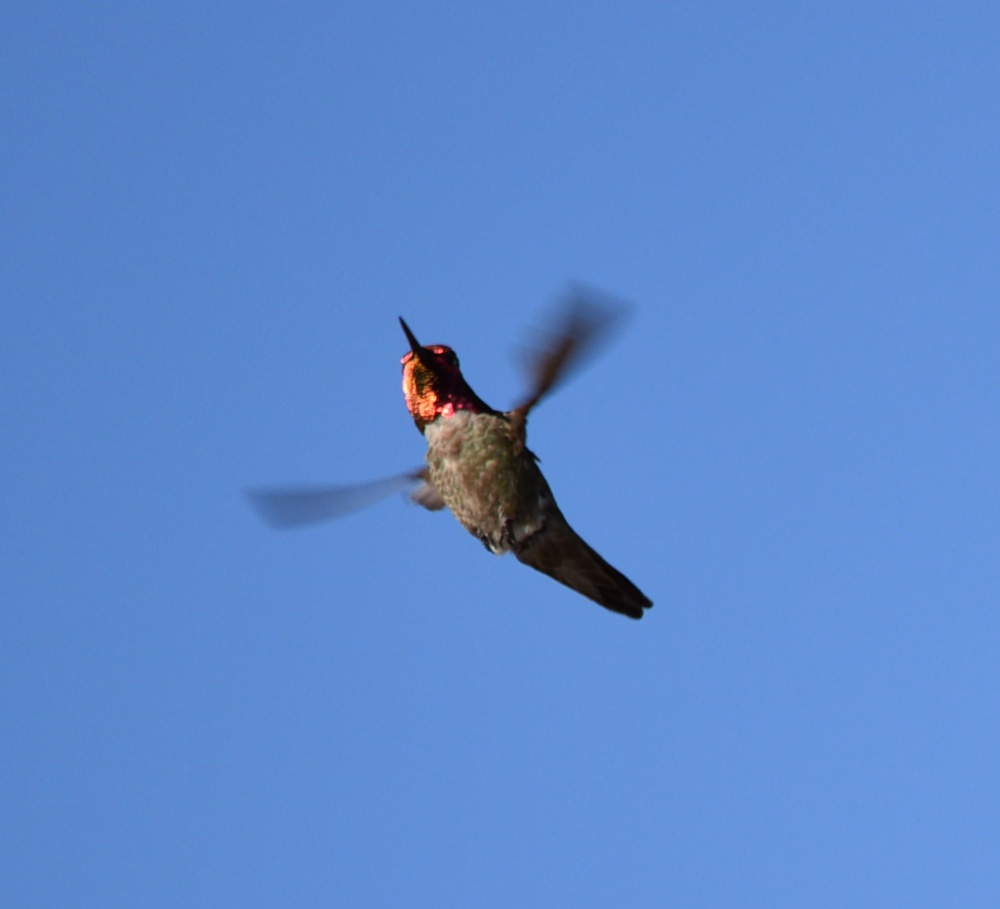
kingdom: Animalia
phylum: Chordata
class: Aves
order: Apodiformes
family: Trochilidae
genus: Selasphorus
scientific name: Selasphorus platycercus
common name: Broad-tailed hummingbird
